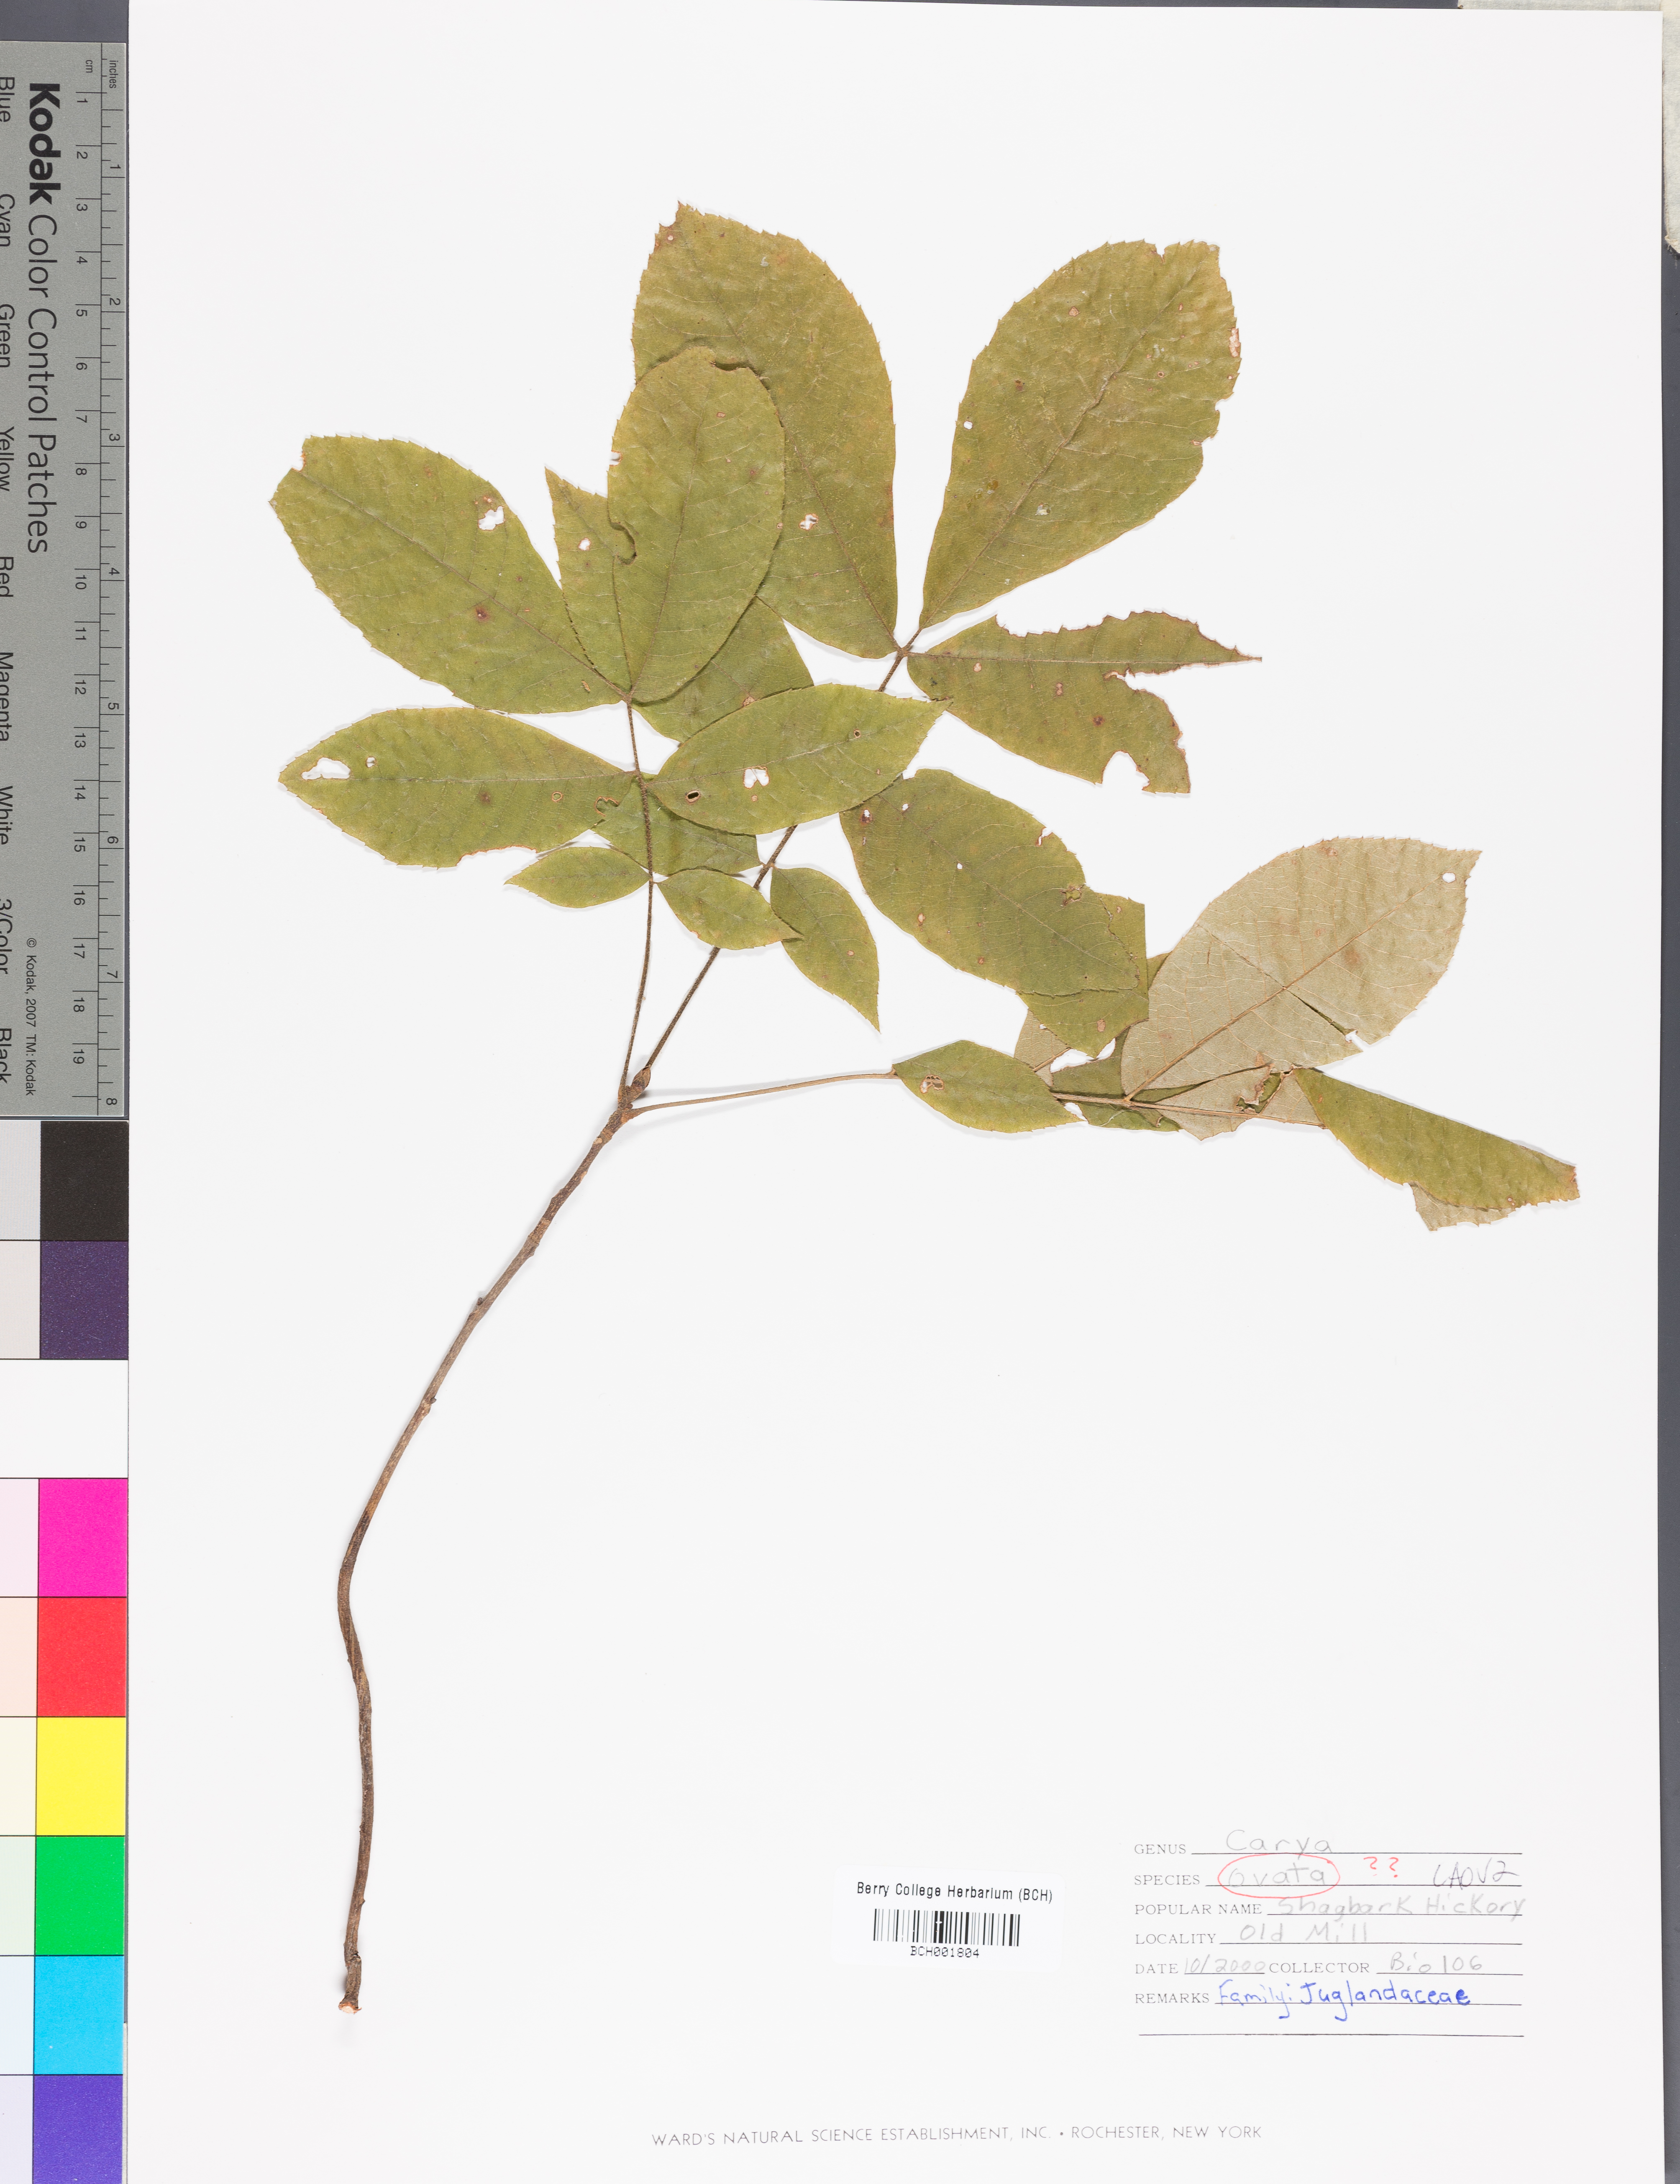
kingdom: Plantae
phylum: Tracheophyta
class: Magnoliopsida
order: Fagales
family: Juglandaceae
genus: Carya
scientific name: Carya ovata
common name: Shagbark hickory
